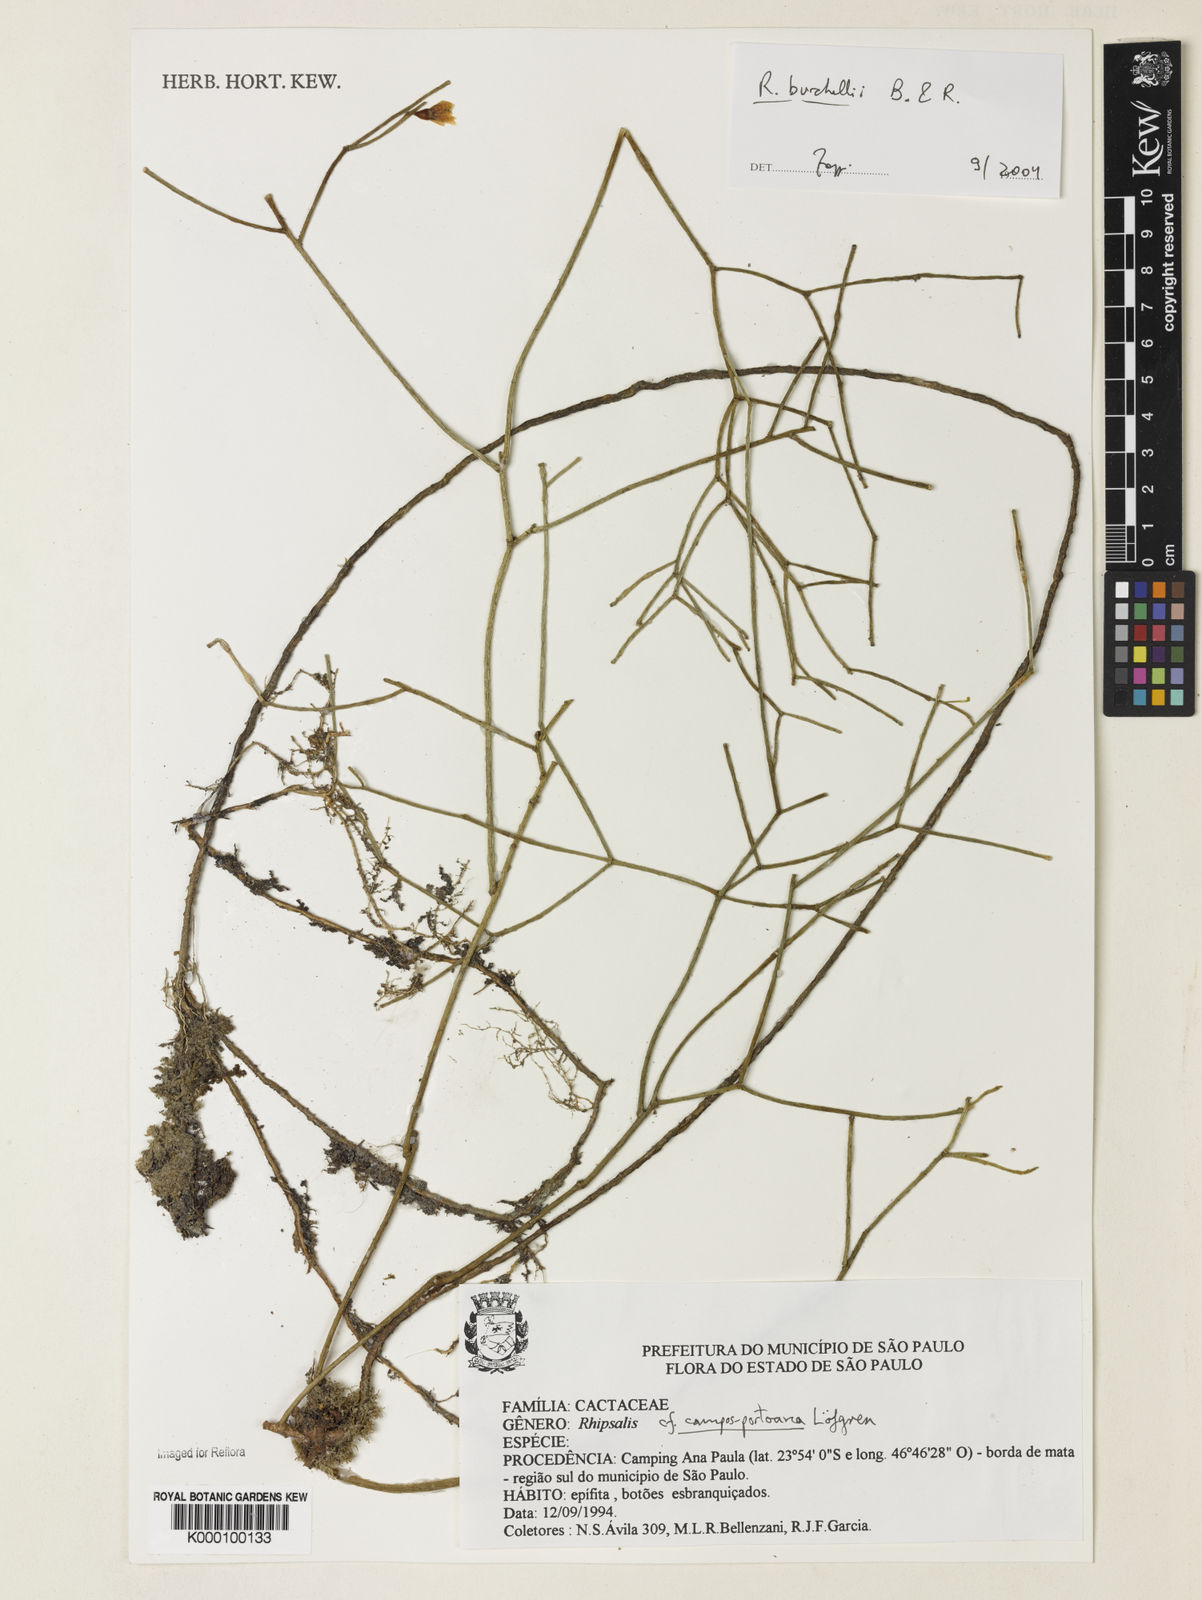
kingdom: Plantae
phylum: Tracheophyta
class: Magnoliopsida
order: Caryophyllales
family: Cactaceae
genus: Rhipsalis
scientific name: Rhipsalis burchellii
